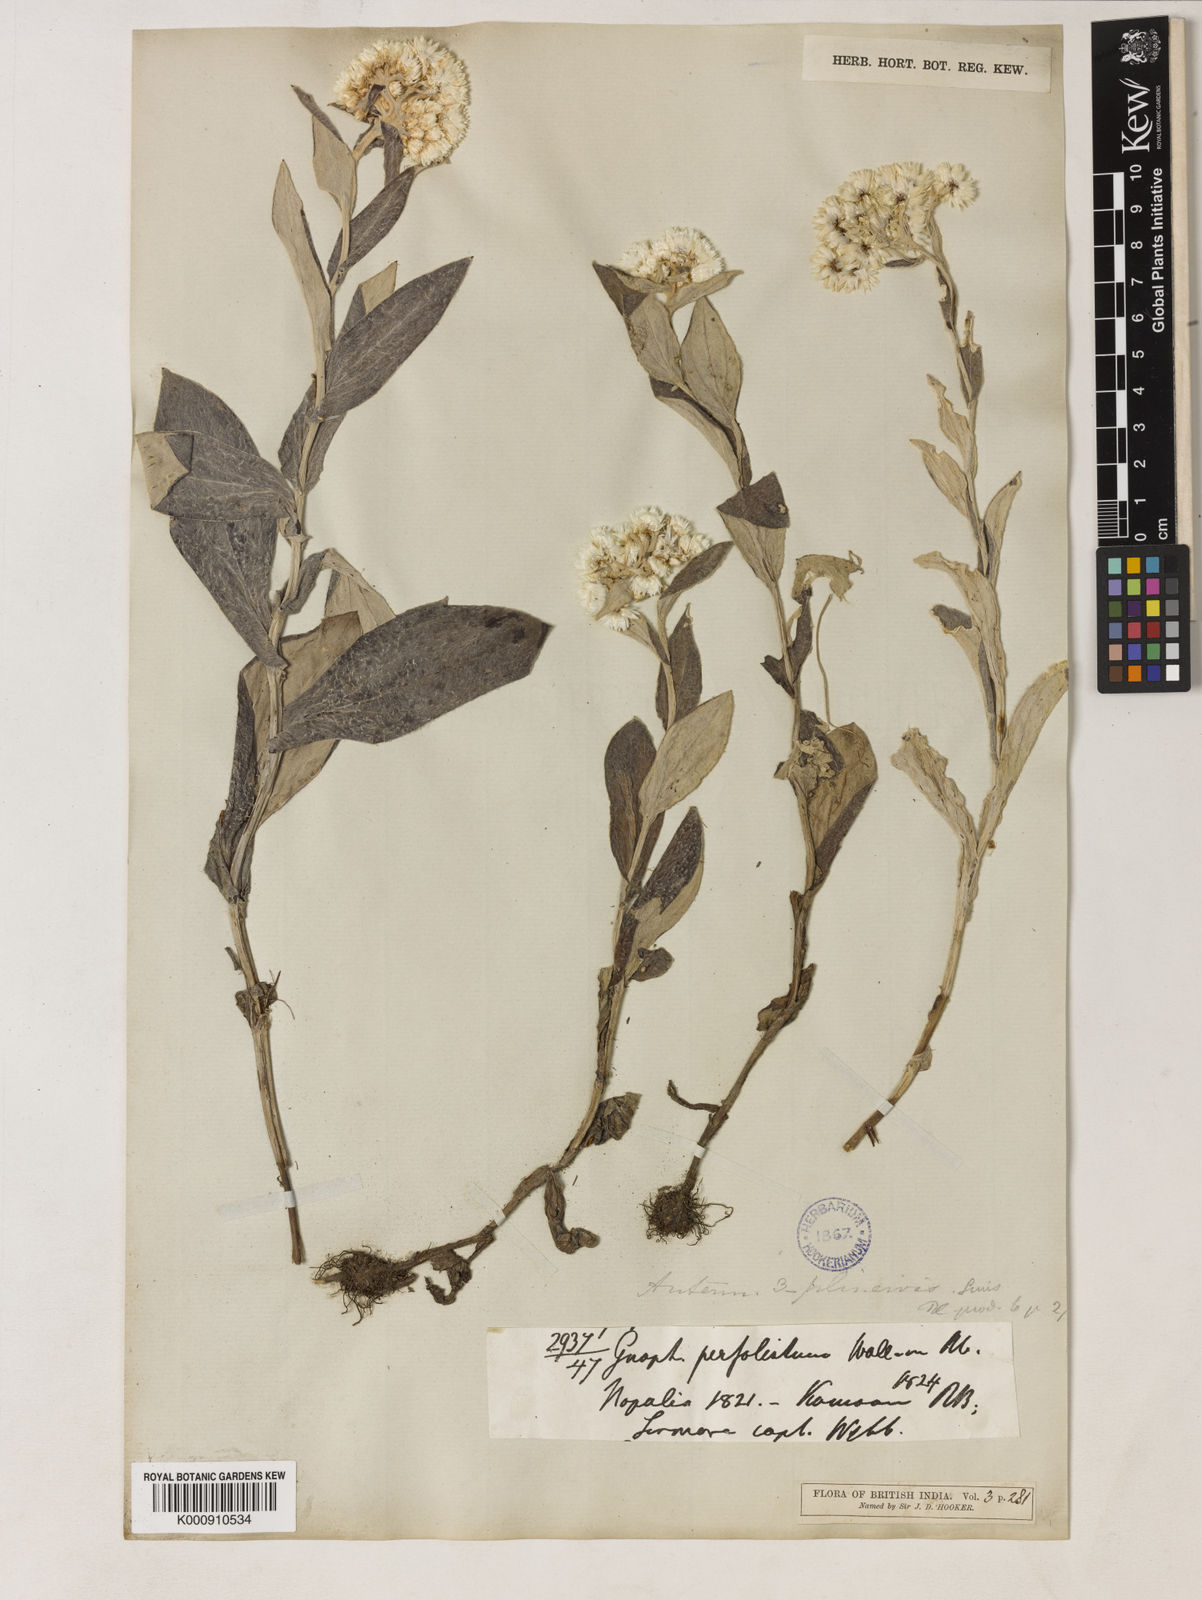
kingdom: Plantae
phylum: Tracheophyta
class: Magnoliopsida
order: Asterales
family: Asteraceae
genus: Anaphalis
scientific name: Anaphalis triplinervis
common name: Pearly everlasting
